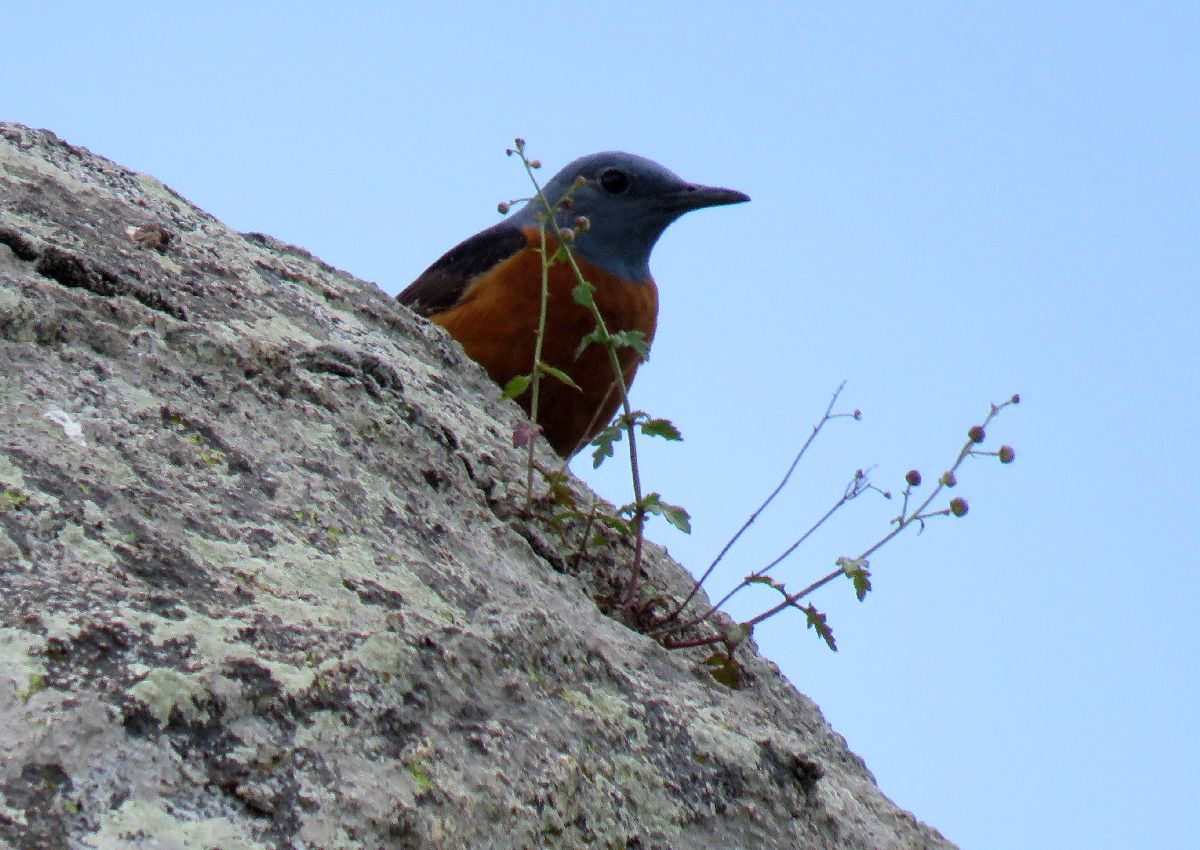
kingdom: Animalia
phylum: Chordata
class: Aves
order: Passeriformes
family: Muscicapidae
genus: Monticola
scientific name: Monticola saxatilis
